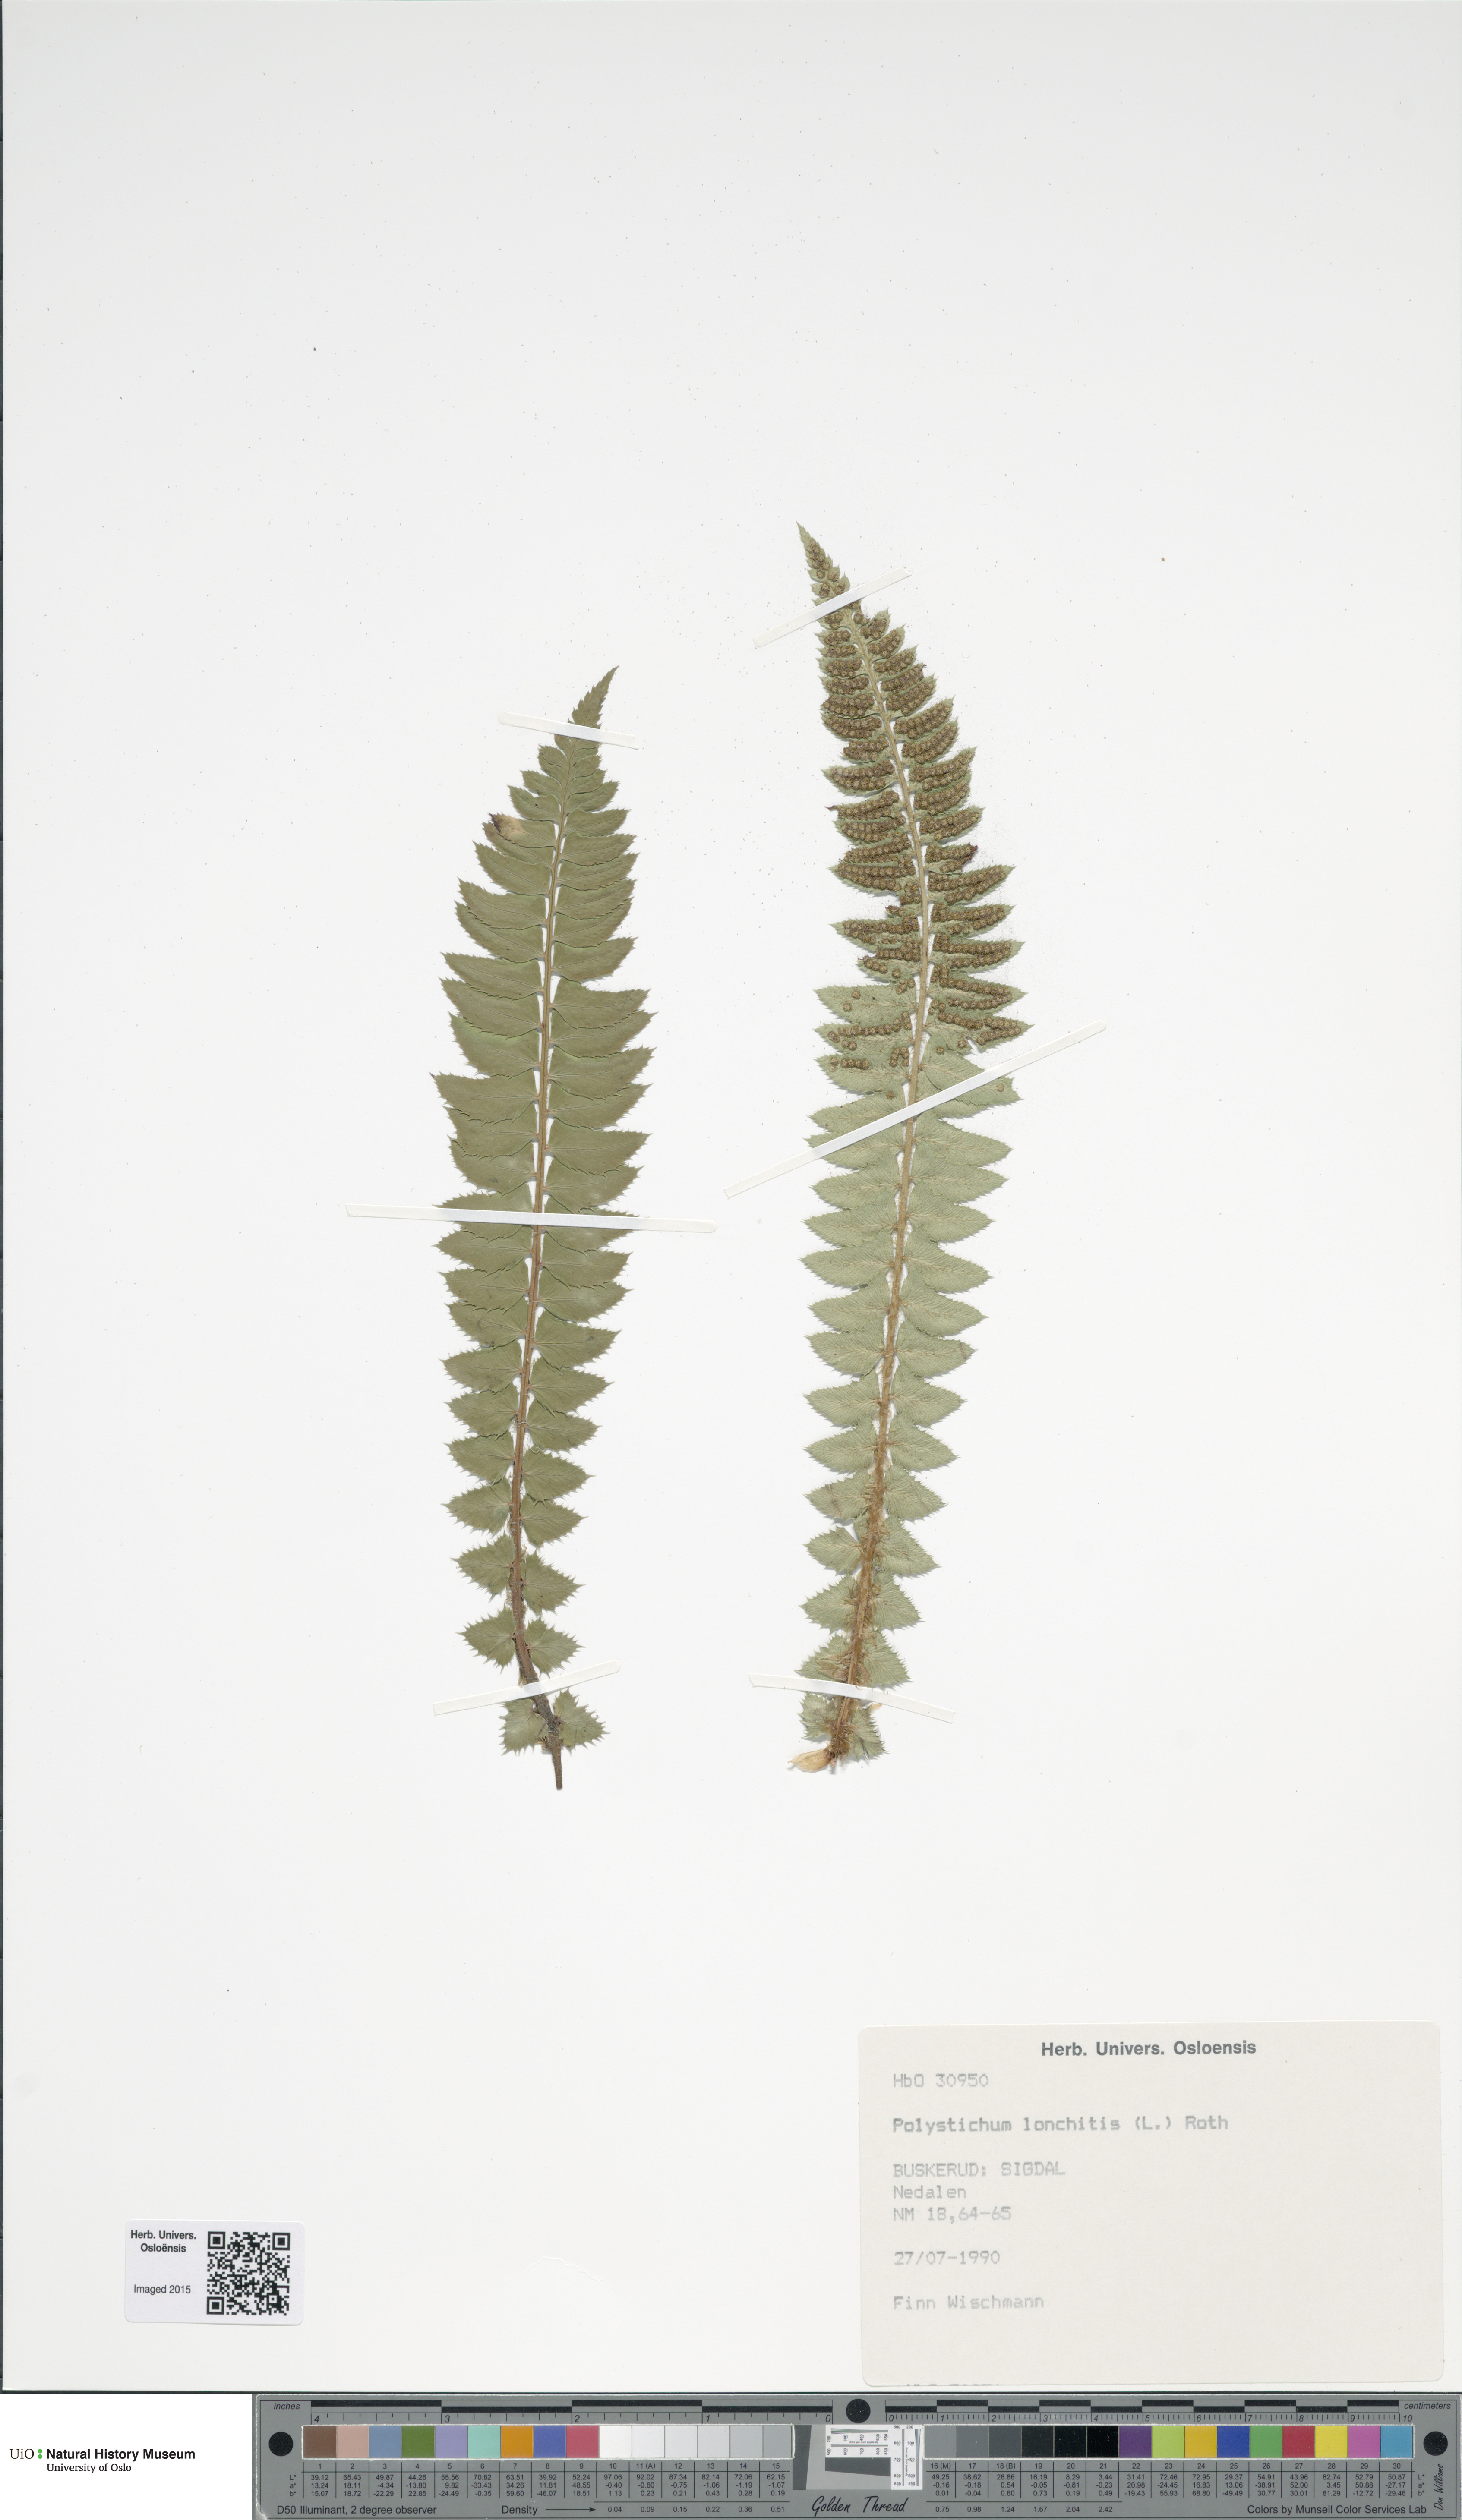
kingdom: Plantae
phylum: Tracheophyta
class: Polypodiopsida
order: Polypodiales
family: Dryopteridaceae
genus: Polystichum
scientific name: Polystichum lonchitis
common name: Holly fern
